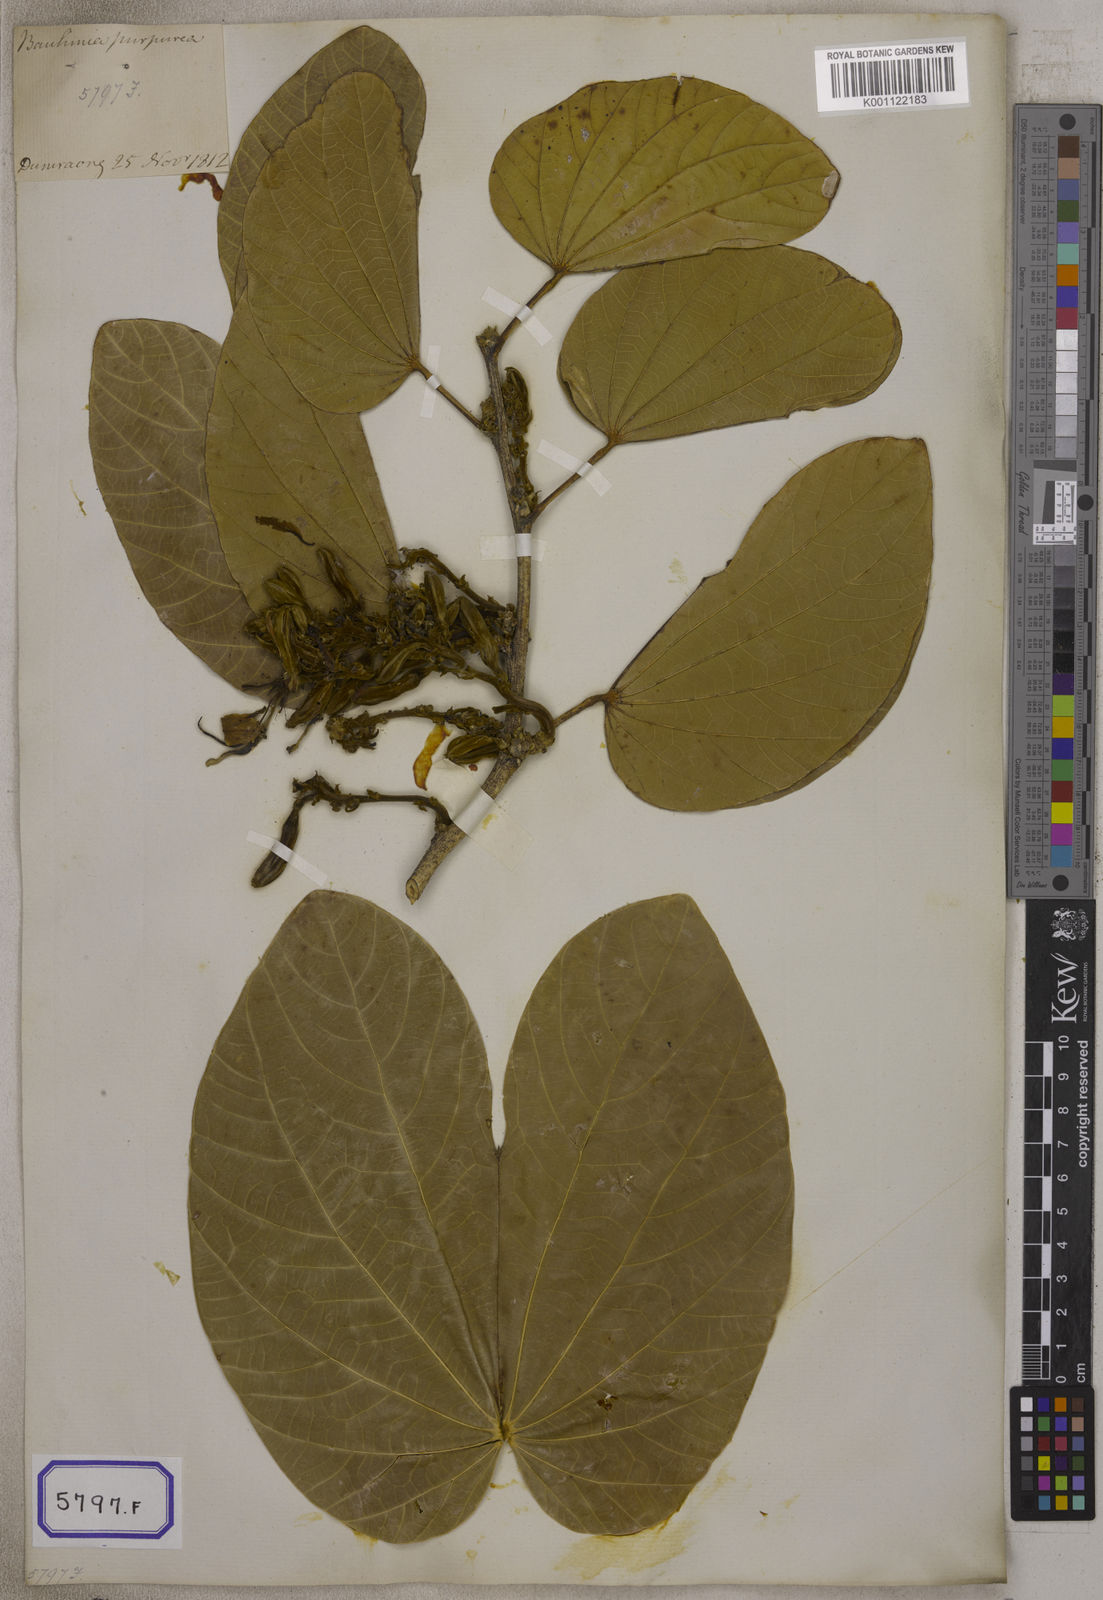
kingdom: Plantae
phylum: Tracheophyta
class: Magnoliopsida
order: Fabales
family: Fabaceae
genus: Bauhinia
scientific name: Bauhinia
